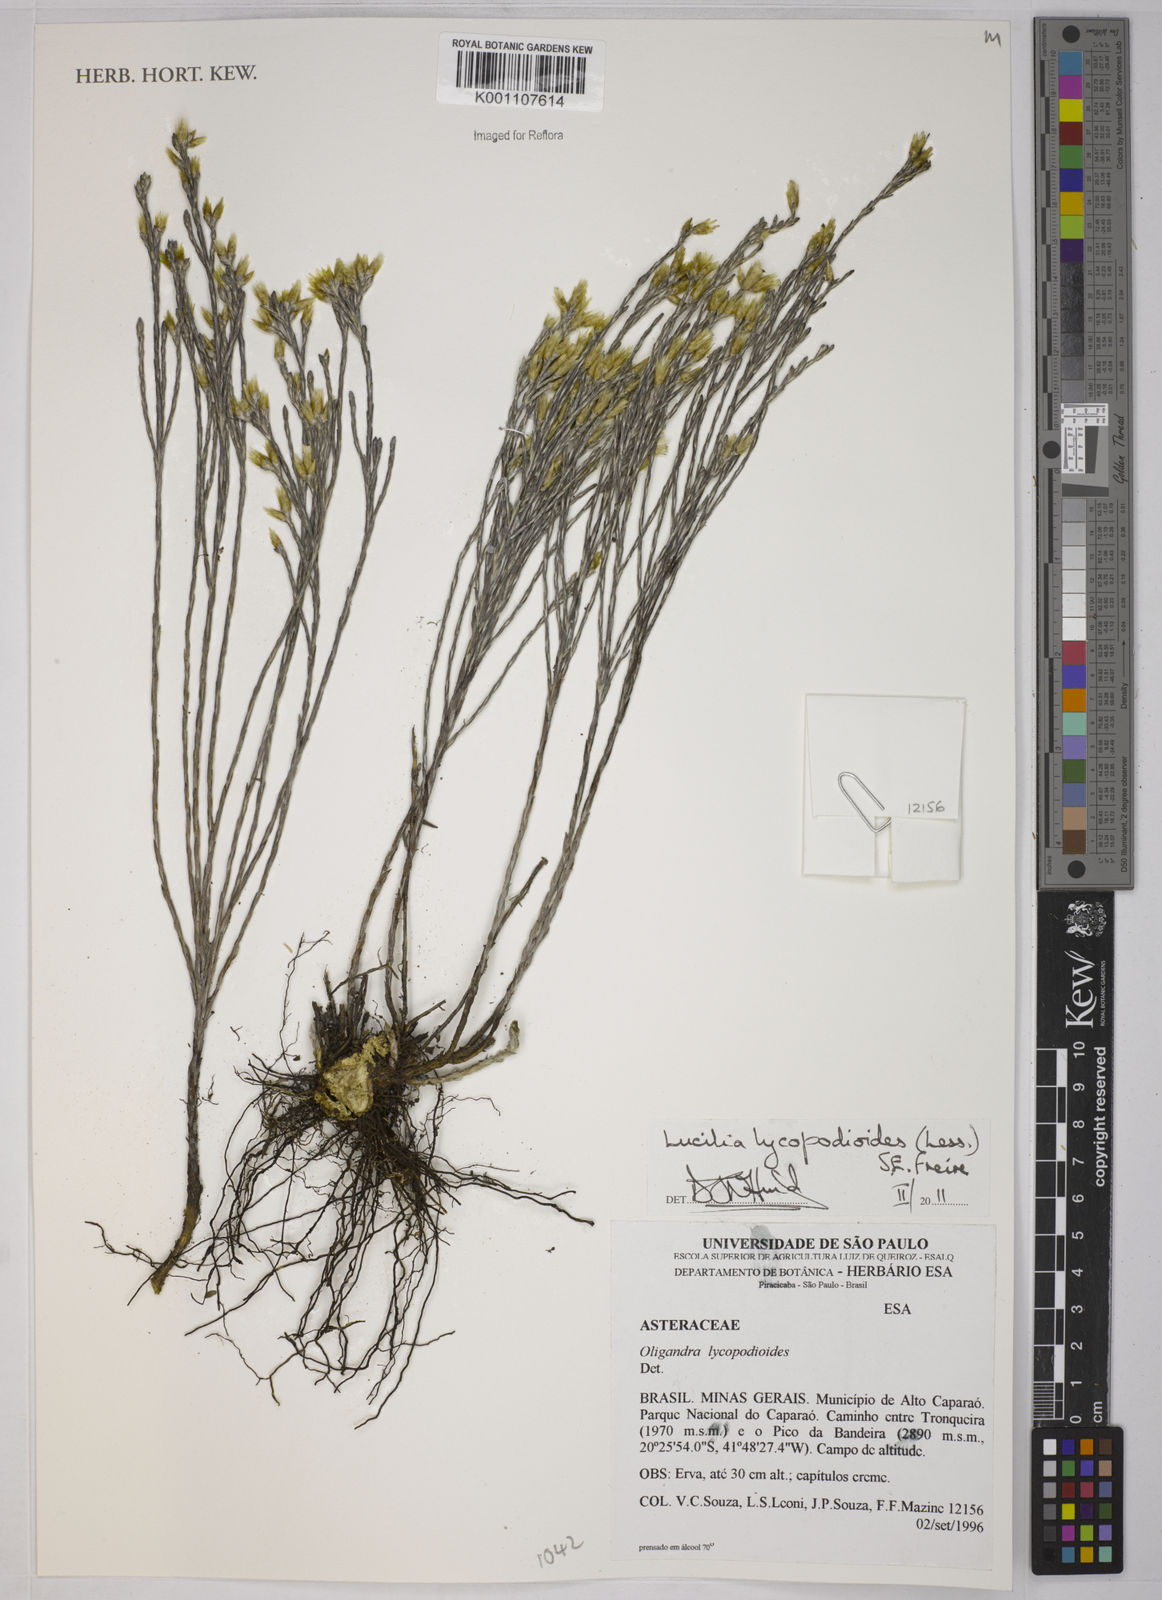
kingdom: Plantae
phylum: Tracheophyta
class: Magnoliopsida
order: Asterales
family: Asteraceae
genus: Lucilia
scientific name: Lucilia lycopodioides
